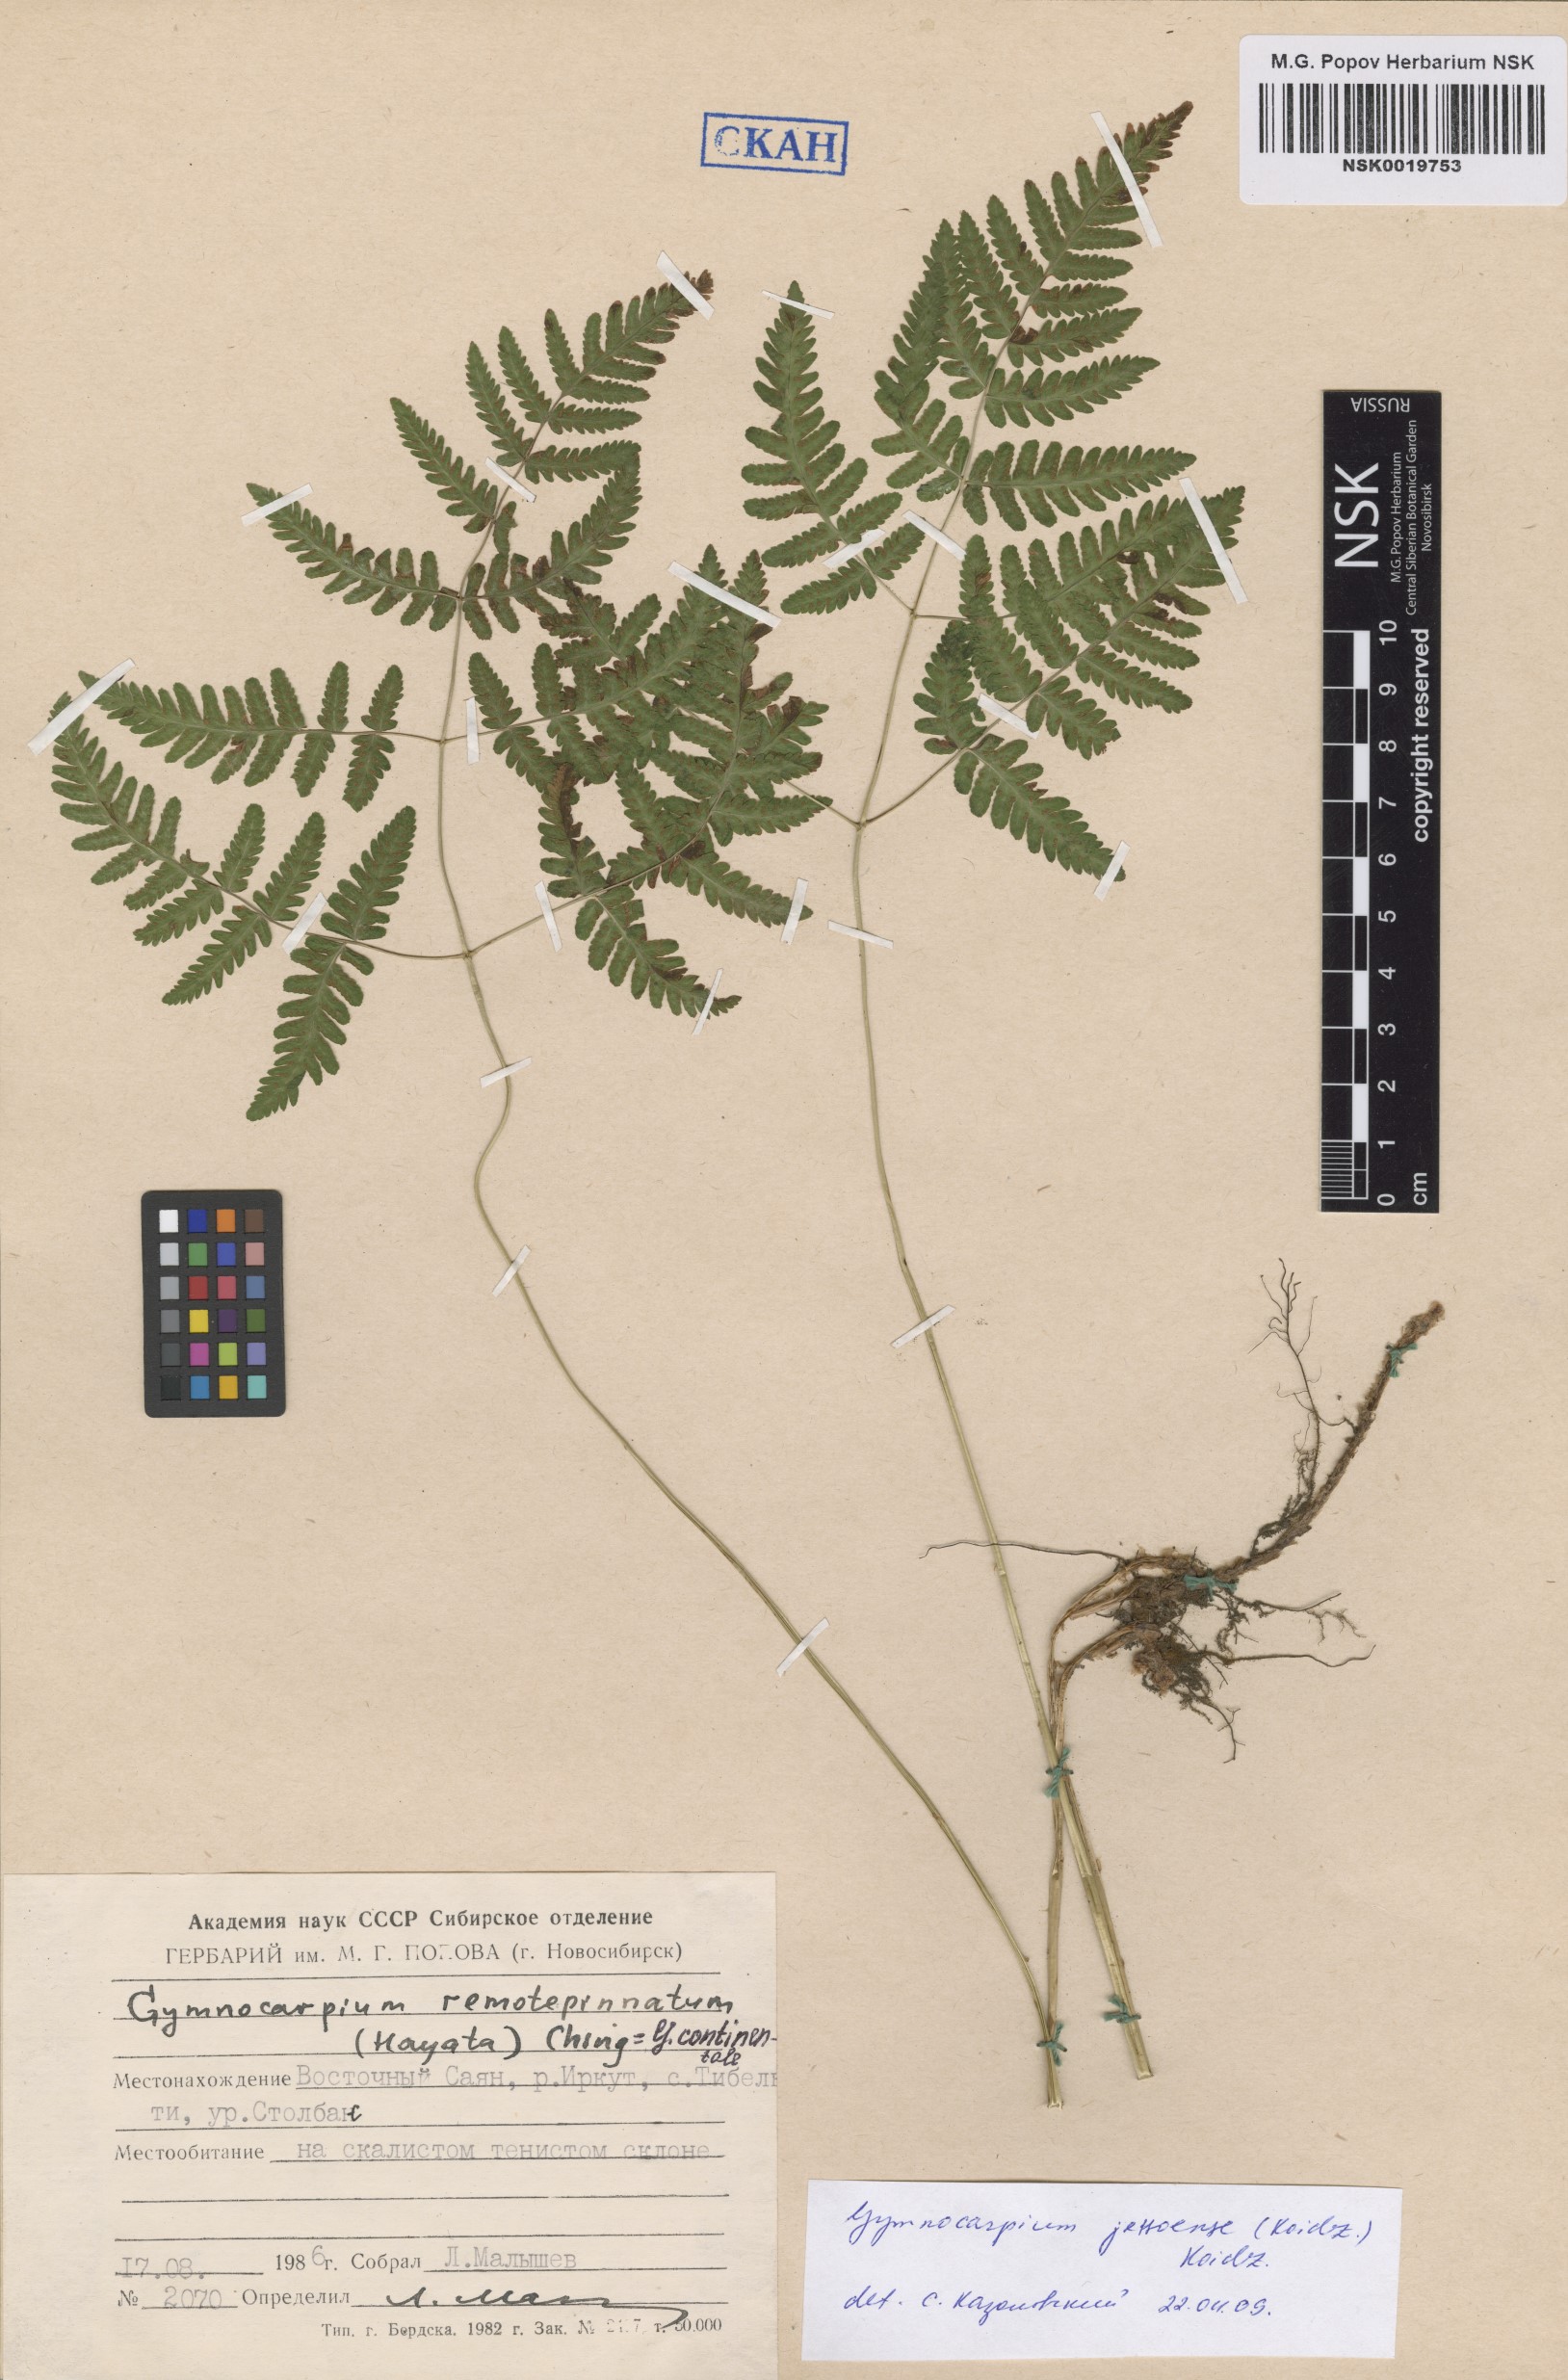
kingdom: Plantae
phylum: Tracheophyta
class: Polypodiopsida
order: Polypodiales
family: Cystopteridaceae
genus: Gymnocarpium
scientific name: Gymnocarpium jessoense
